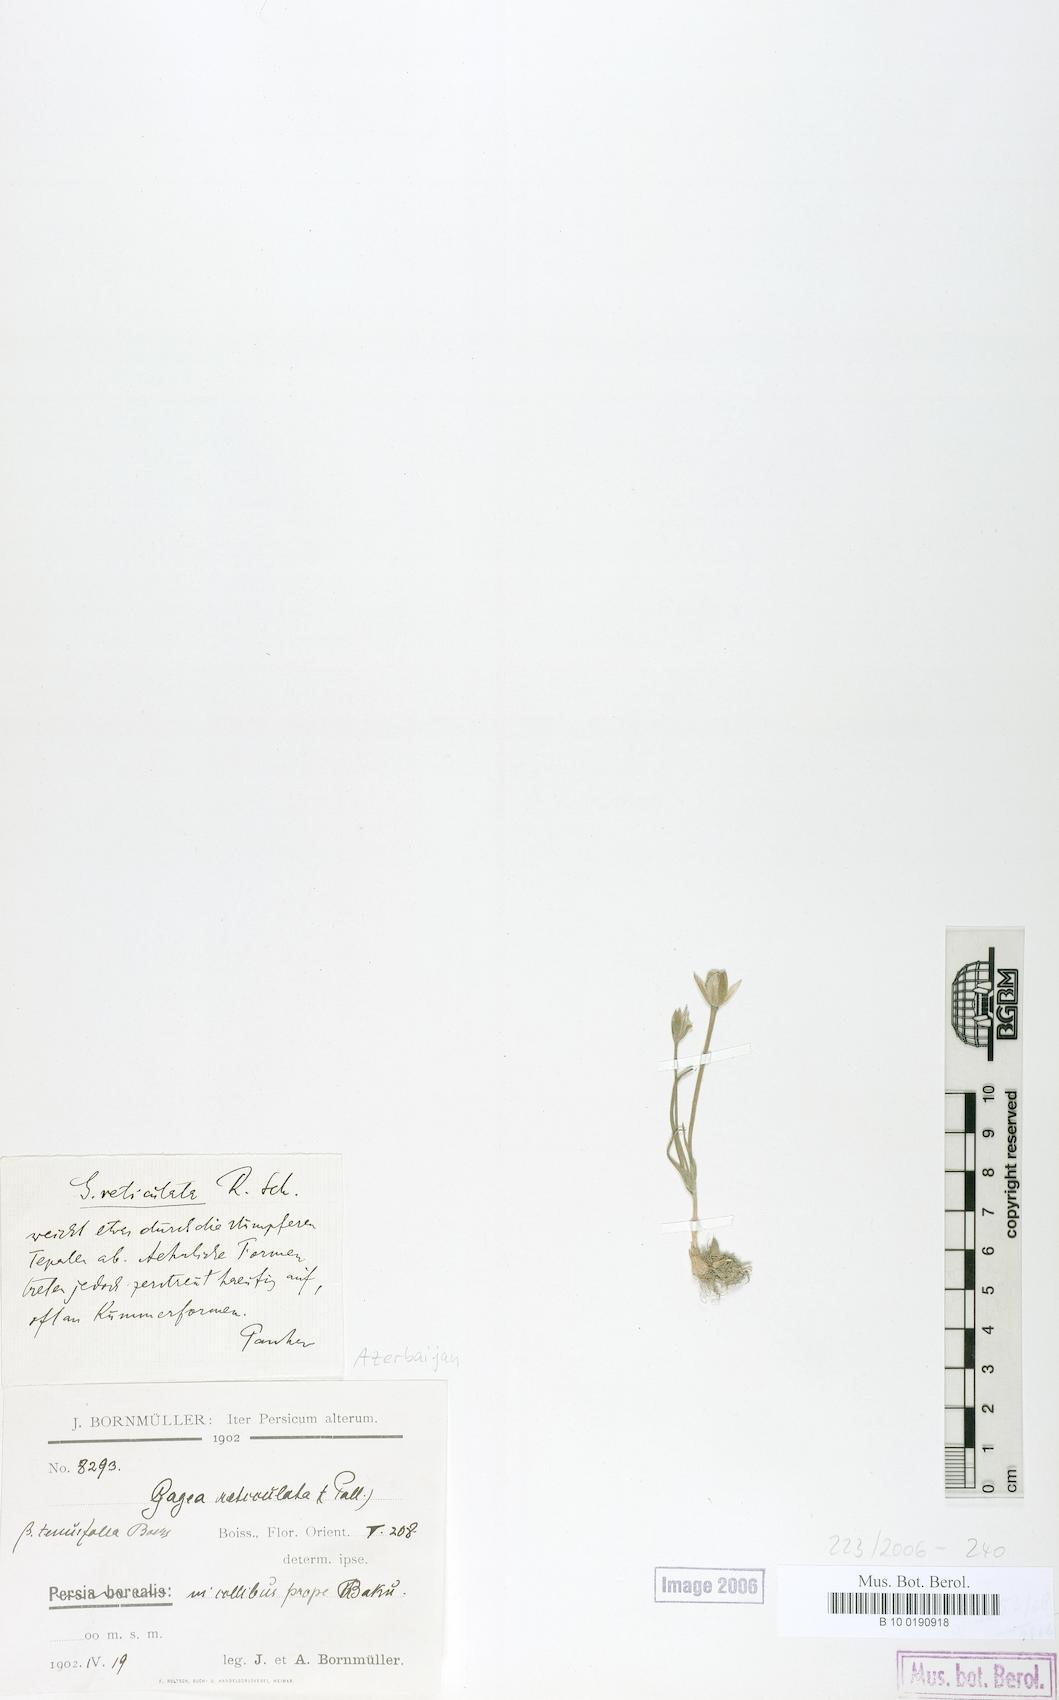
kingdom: Plantae
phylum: Tracheophyta
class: Liliopsida
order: Liliales
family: Liliaceae
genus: Gagea
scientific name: Gagea reticulata
